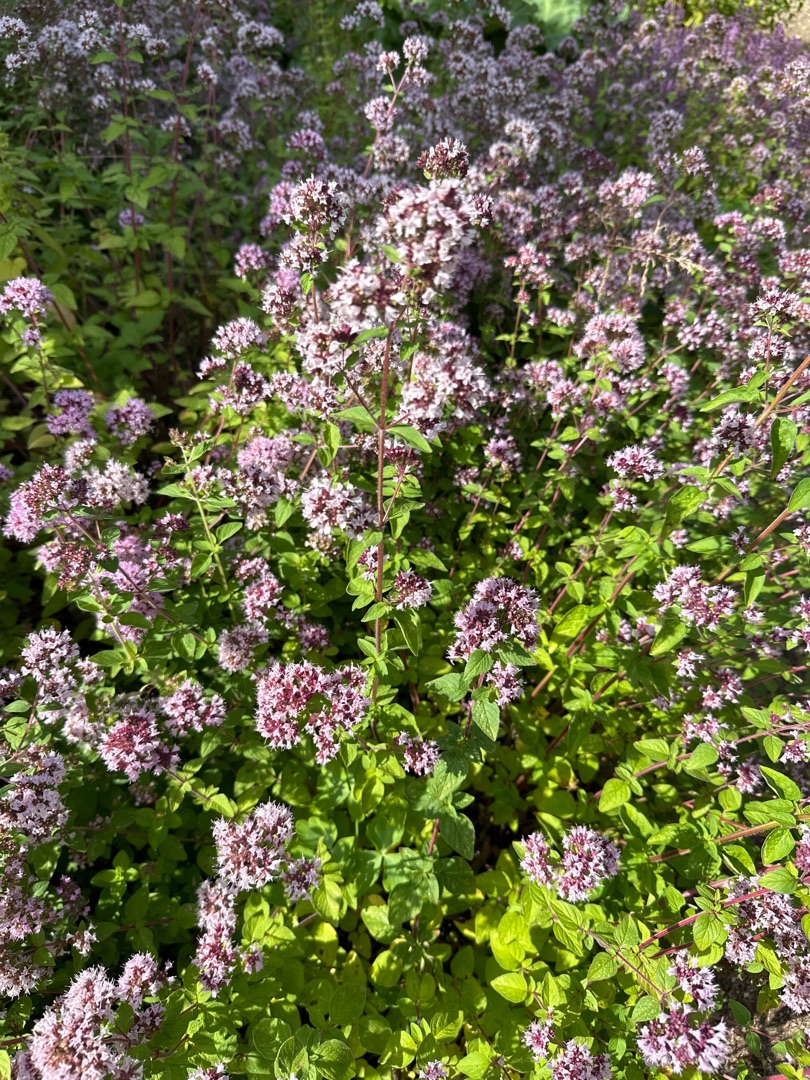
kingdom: Plantae
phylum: Tracheophyta
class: Magnoliopsida
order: Lamiales
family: Lamiaceae
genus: Origanum
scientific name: Origanum vulgare
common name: Merian
